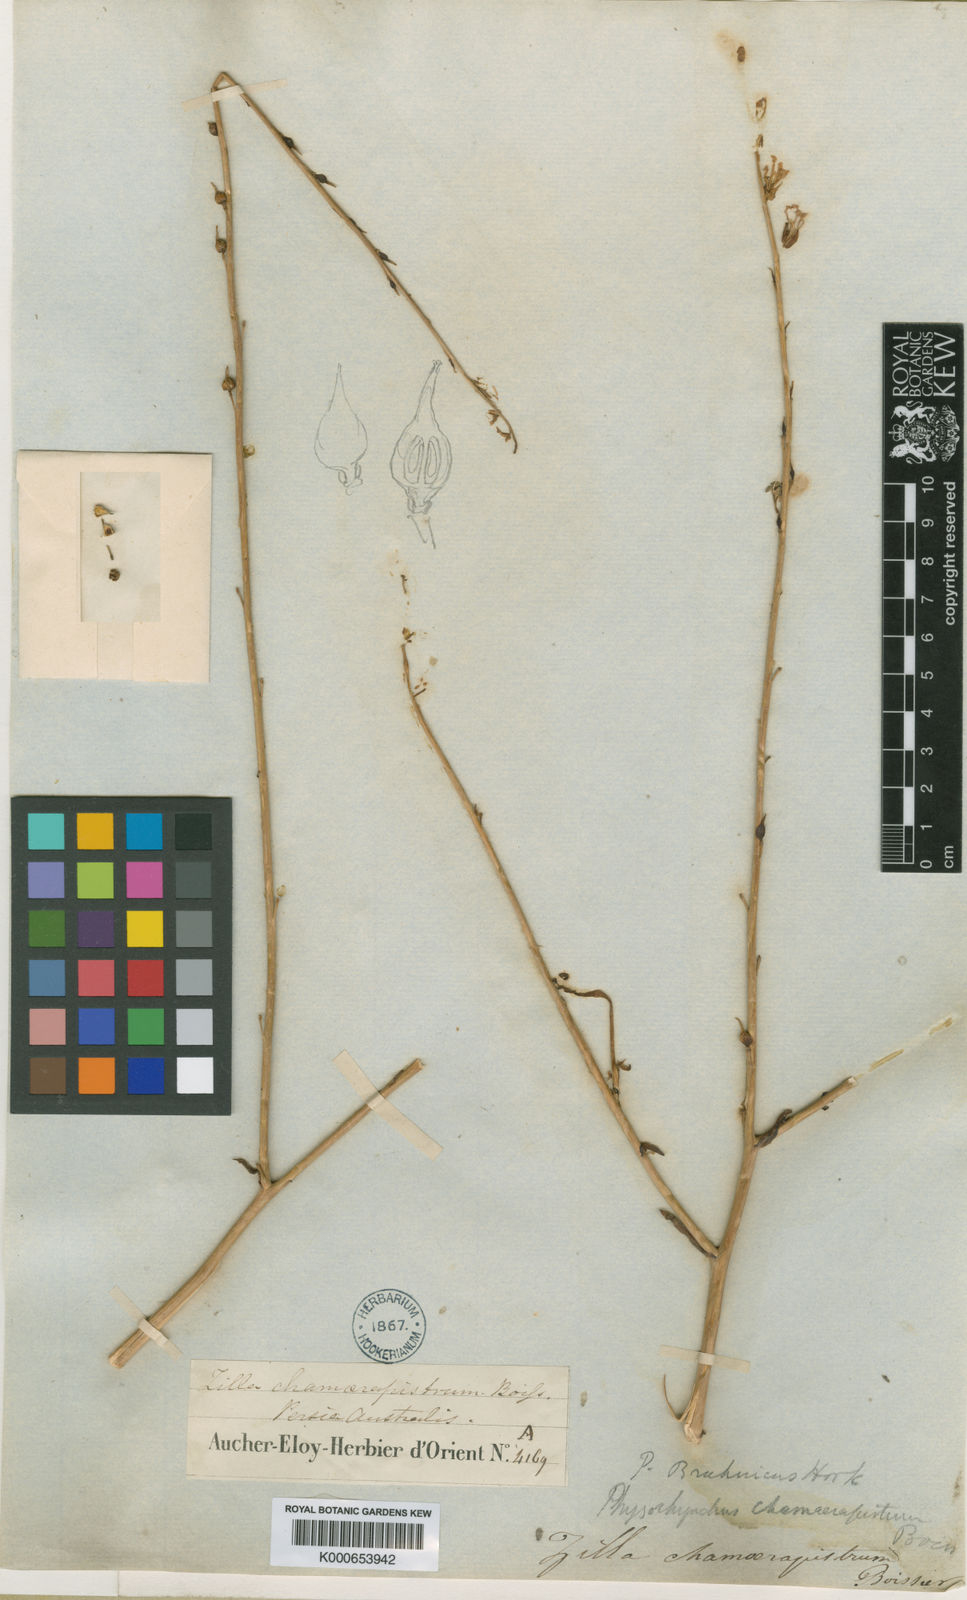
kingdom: Plantae
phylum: Tracheophyta
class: Magnoliopsida
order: Brassicales
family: Brassicaceae
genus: Physorhynchus
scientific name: Physorhynchus chamaerapistrum
